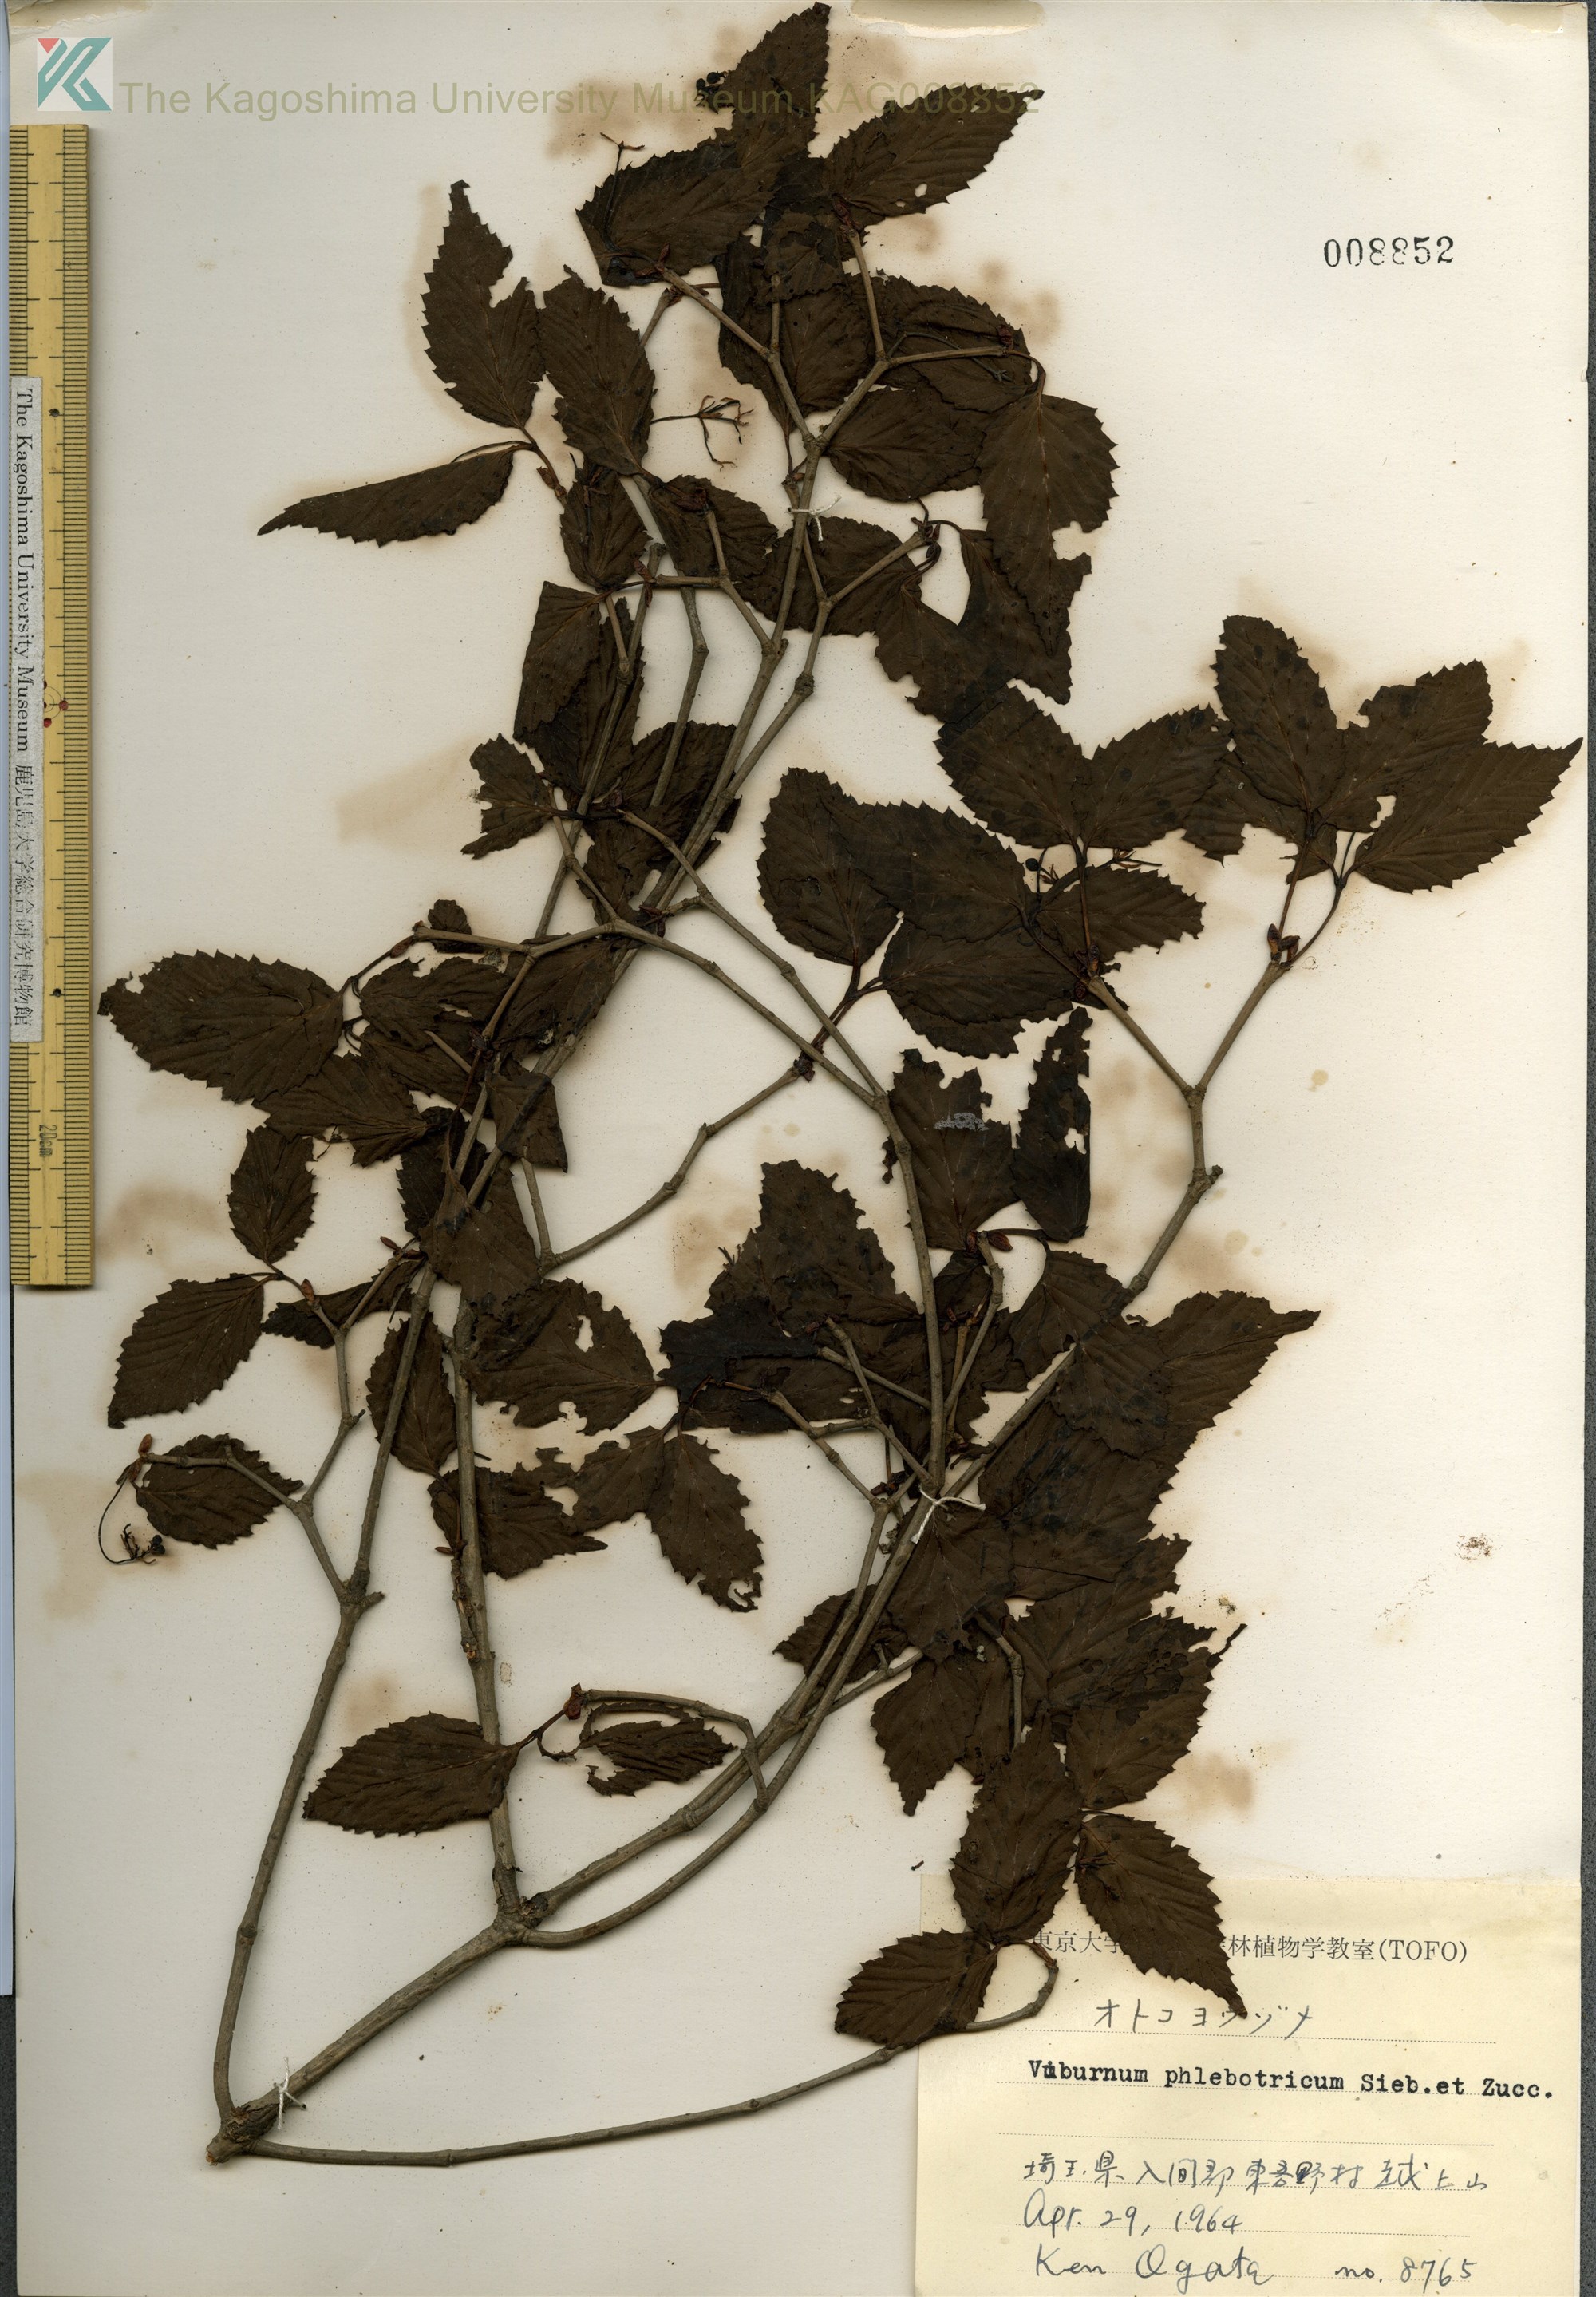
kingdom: Plantae
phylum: Tracheophyta
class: Magnoliopsida
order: Dipsacales
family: Viburnaceae
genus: Viburnum
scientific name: Viburnum phlebotrichum
